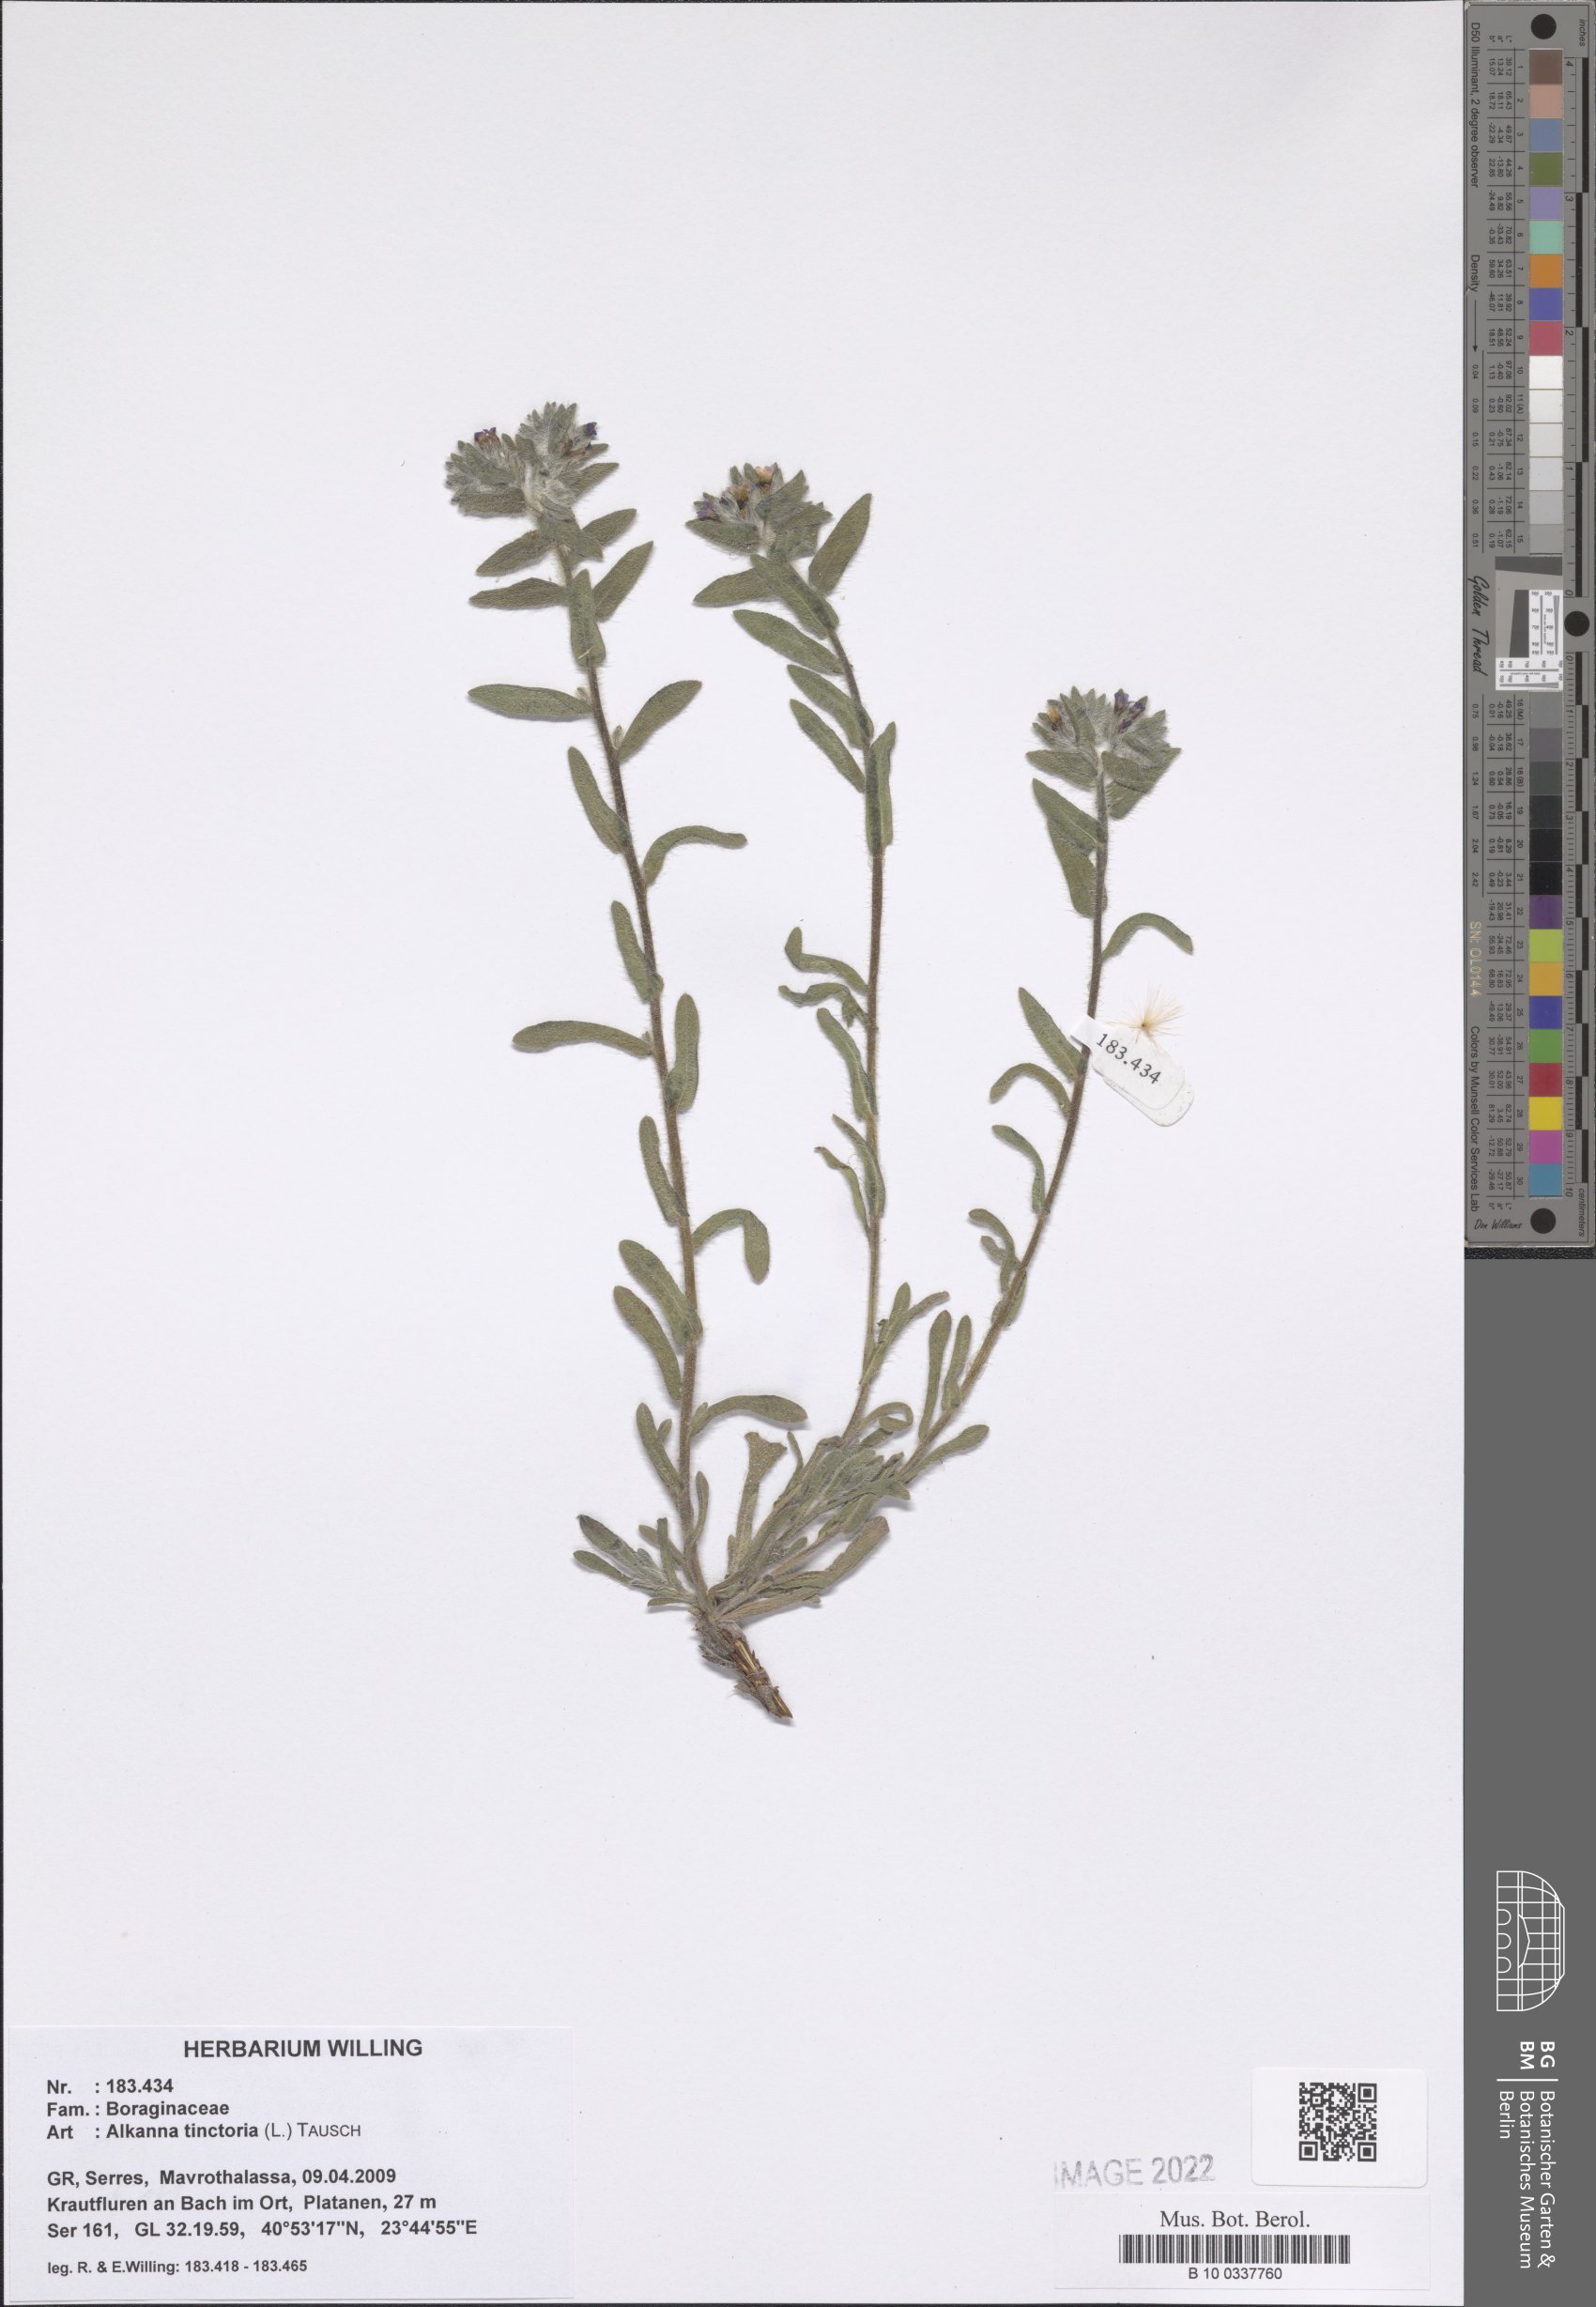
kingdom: Plantae
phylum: Tracheophyta
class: Magnoliopsida
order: Boraginales
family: Boraginaceae
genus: Alkanna
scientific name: Alkanna tinctoria
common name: Dyer's-alkanet
